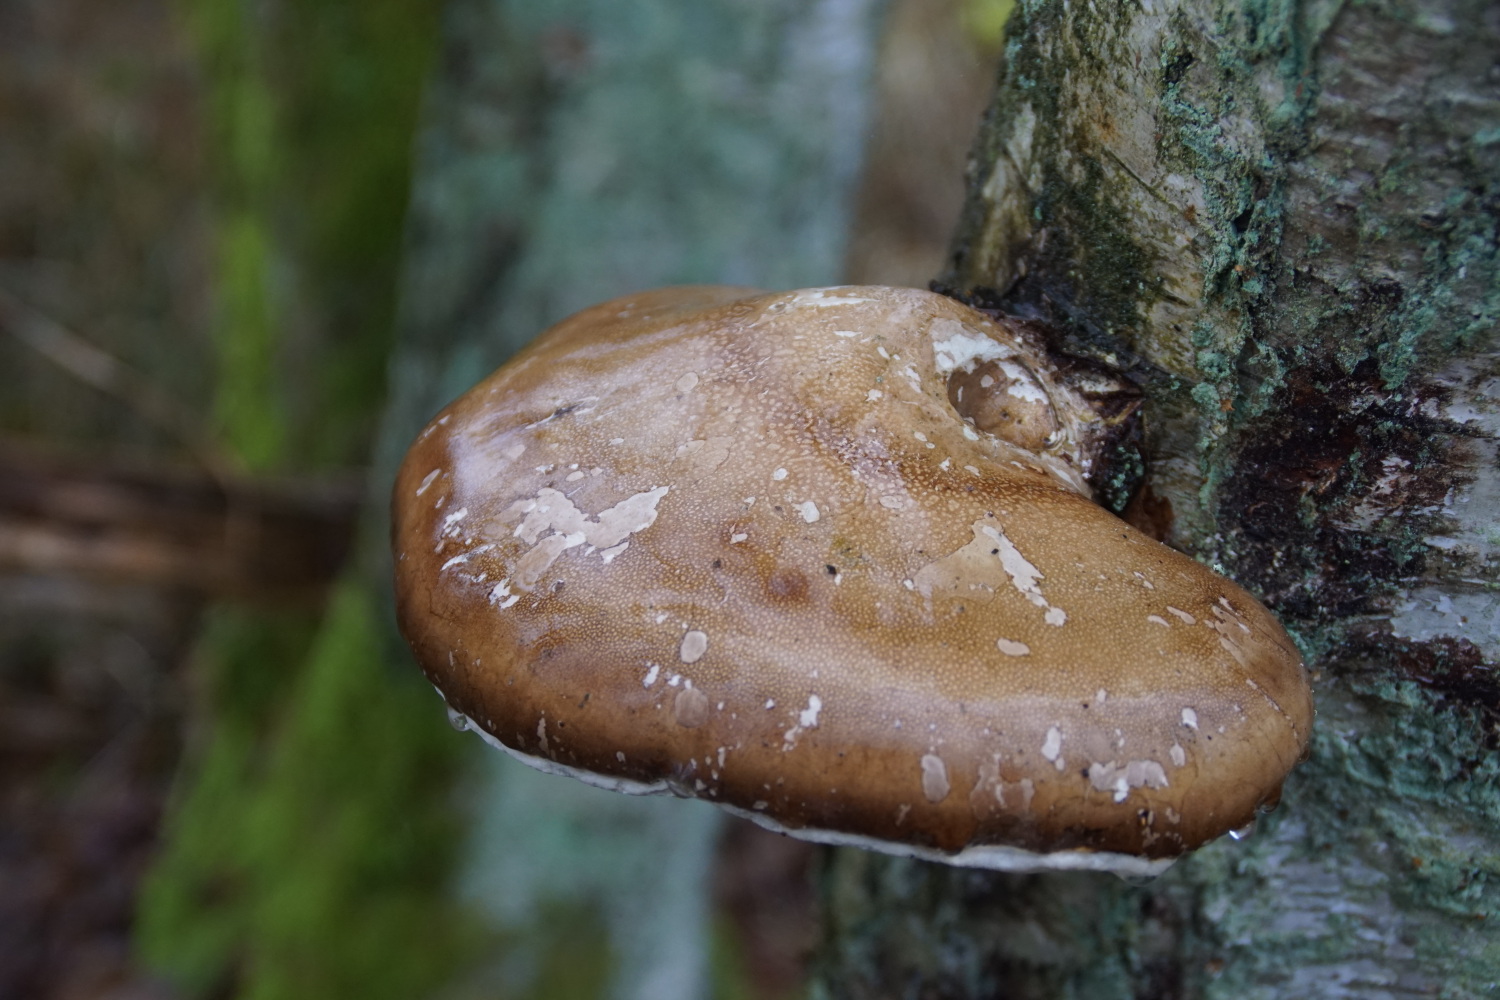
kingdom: Fungi
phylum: Basidiomycota
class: Agaricomycetes
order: Polyporales
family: Fomitopsidaceae
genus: Fomitopsis
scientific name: Fomitopsis betulina
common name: birkeporesvamp
